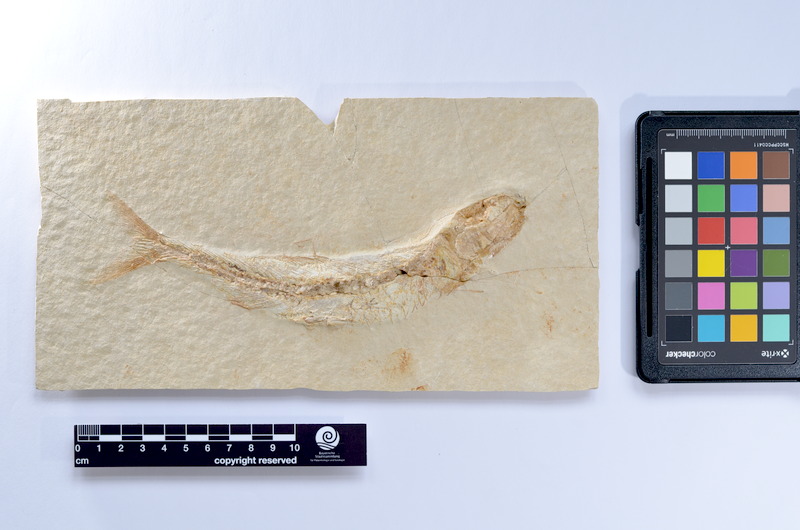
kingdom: Animalia
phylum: Chordata
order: Elopiformes
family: Anaethalionidae
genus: Anaethalion
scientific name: Anaethalion knorri
